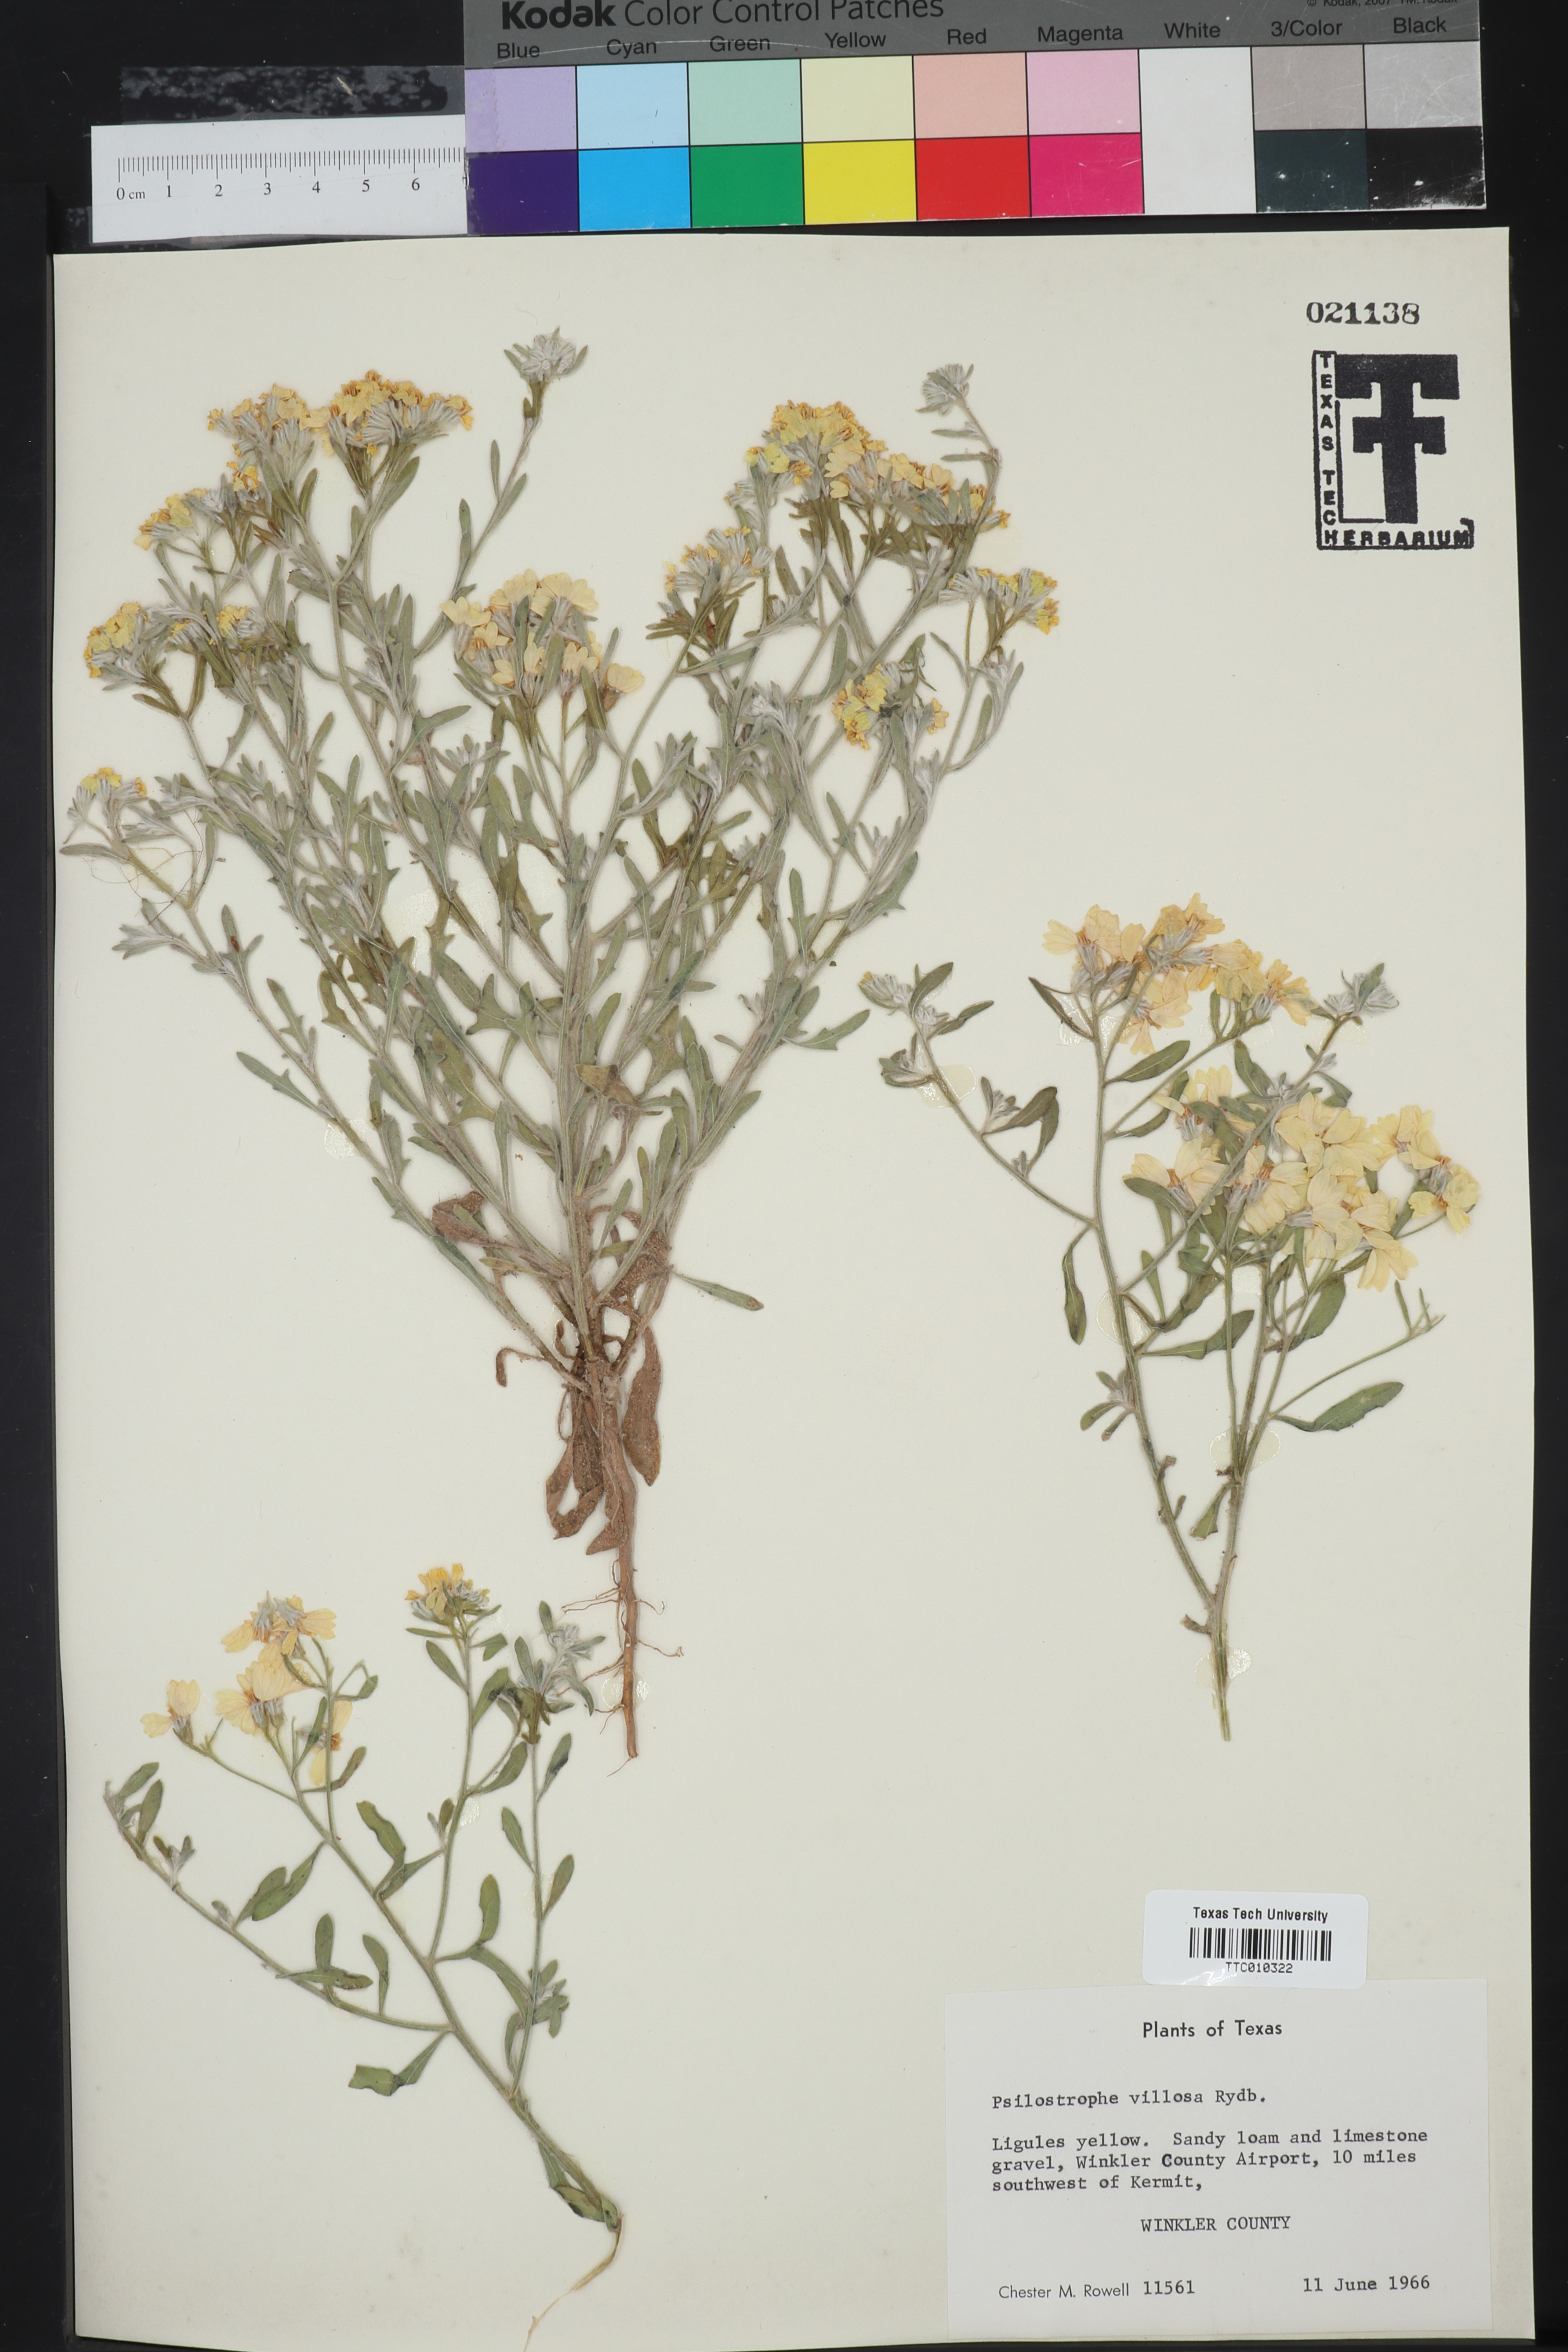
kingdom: Plantae
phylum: Tracheophyta
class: Magnoliopsida
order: Asterales
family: Asteraceae
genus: Psilostrophe
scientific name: Psilostrophe villosa
